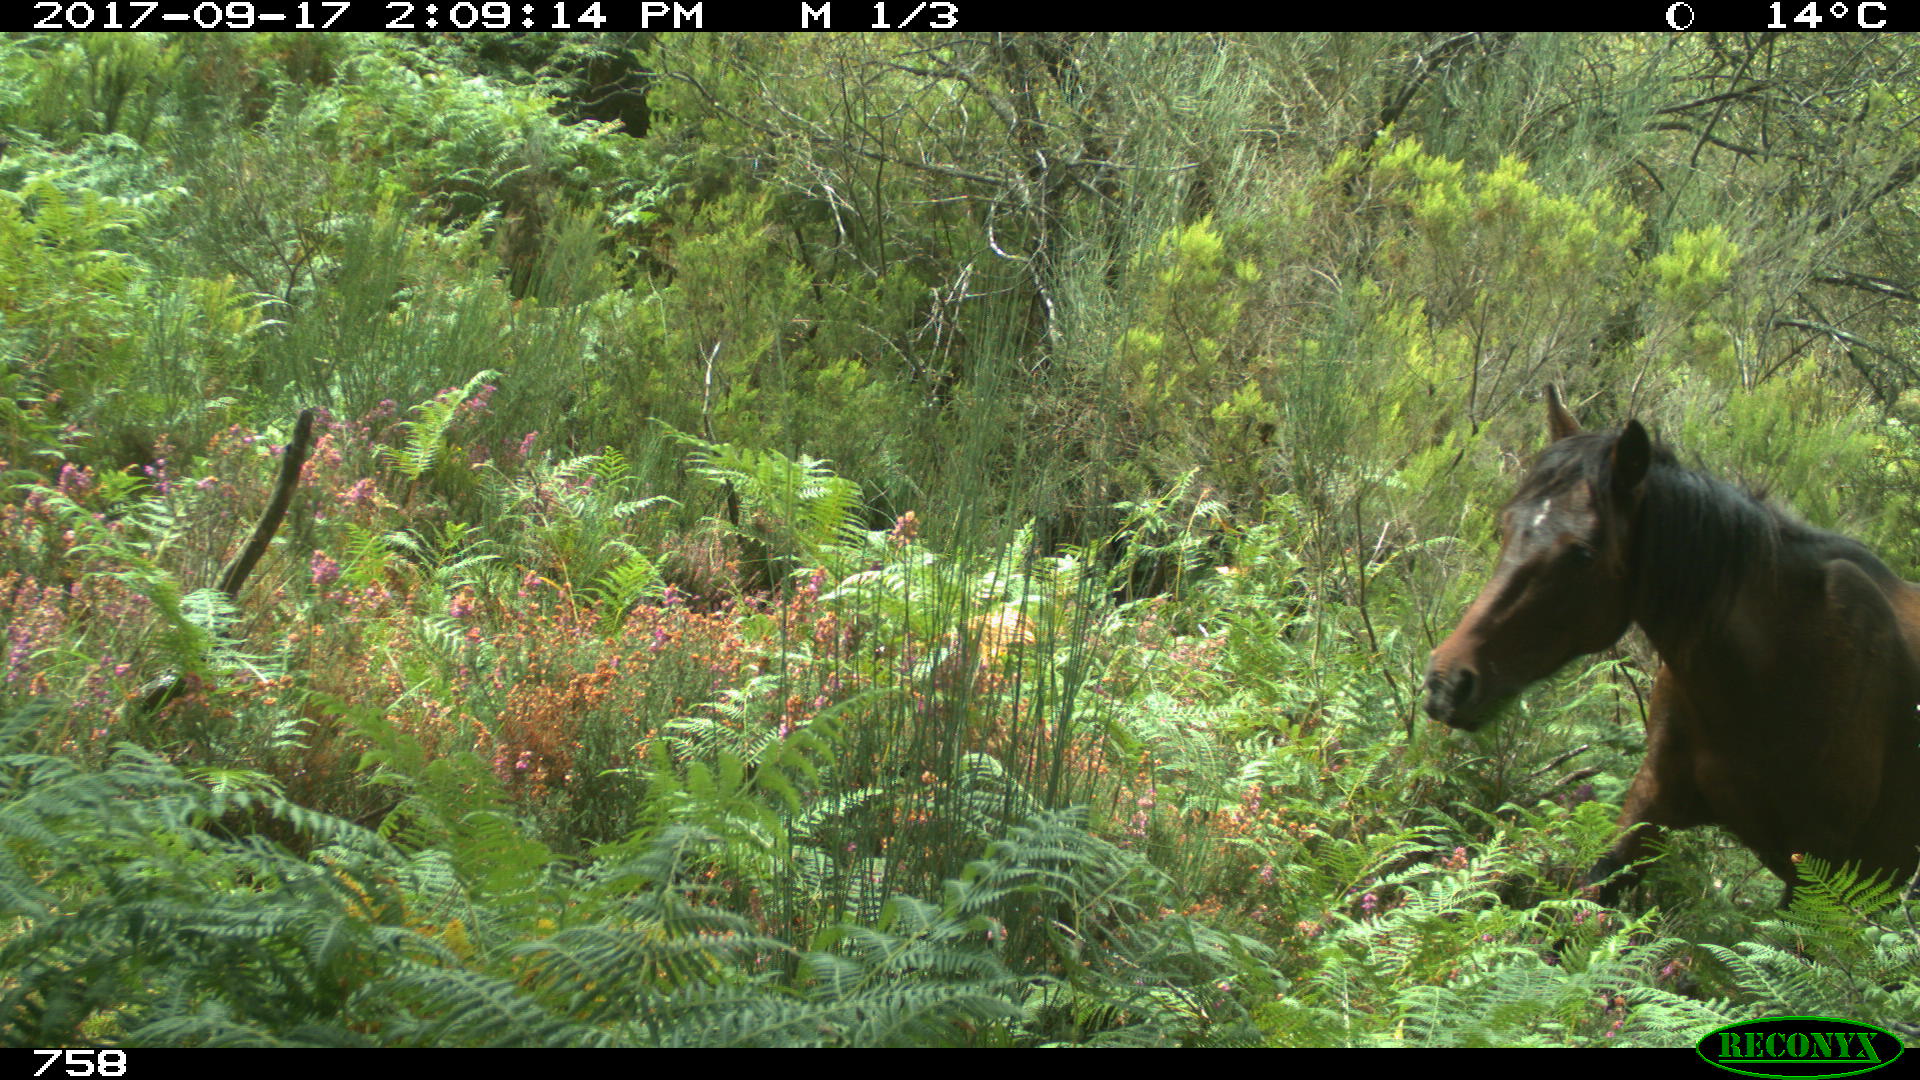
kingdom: Animalia
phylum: Chordata
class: Mammalia
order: Perissodactyla
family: Equidae
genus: Equus
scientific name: Equus caballus
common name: Horse
